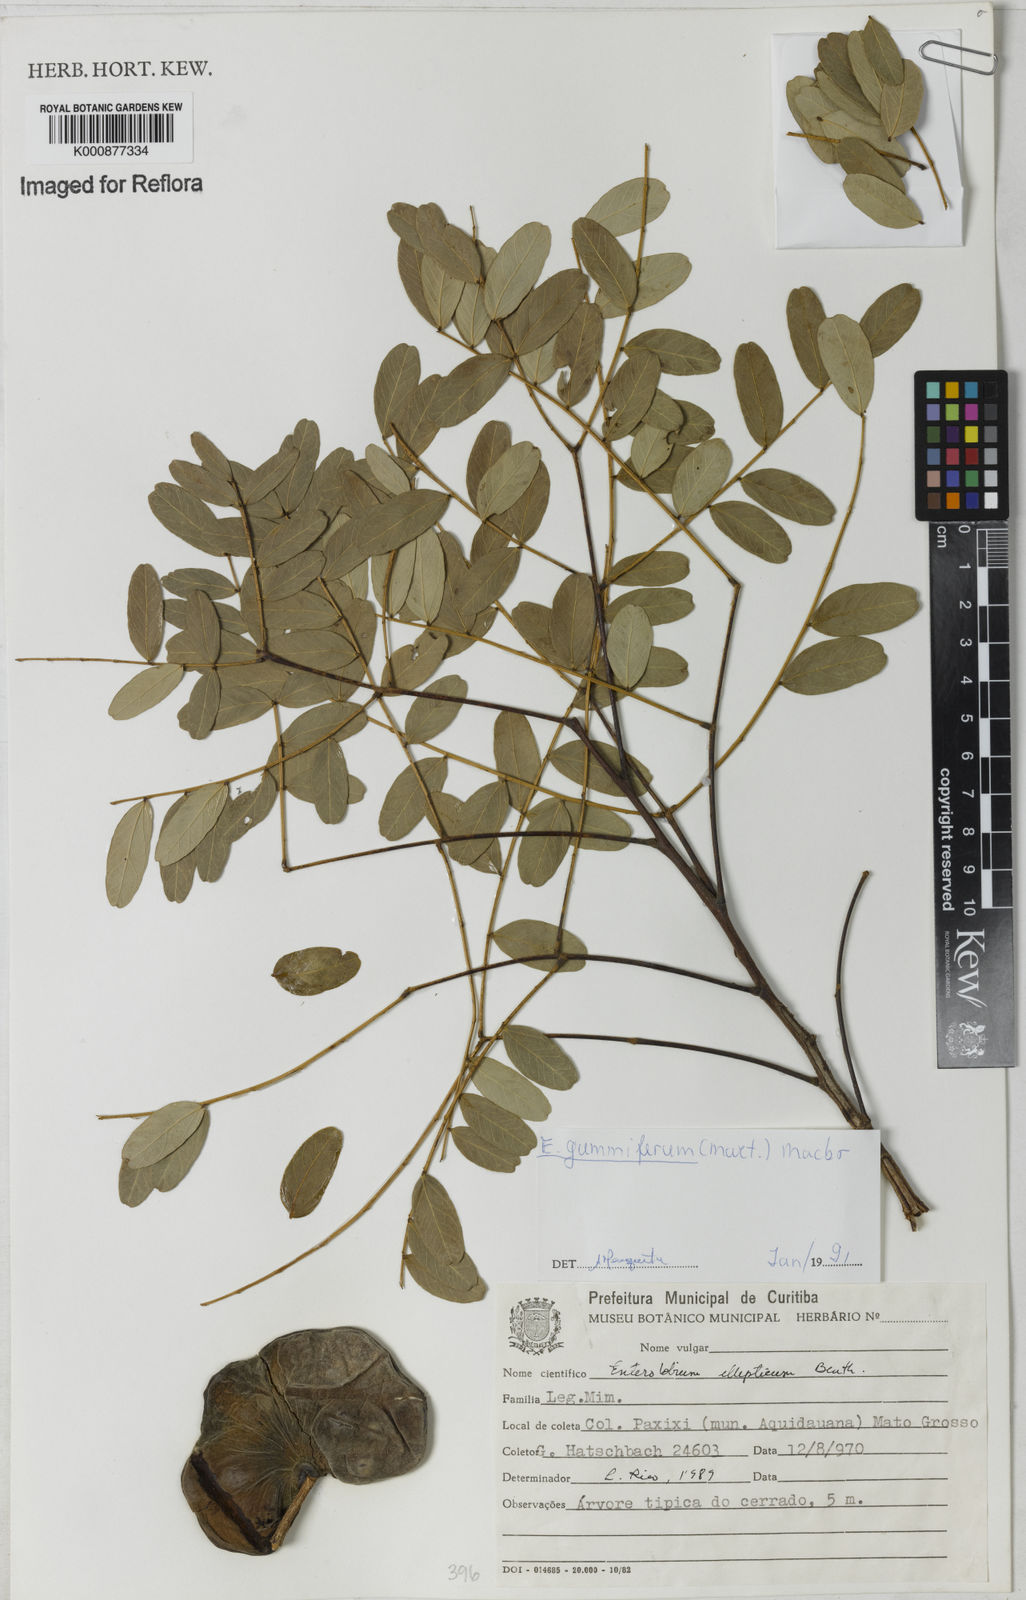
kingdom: Plantae
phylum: Tracheophyta
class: Magnoliopsida
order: Fabales
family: Fabaceae
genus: Enterolobium
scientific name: Enterolobium gummiferum
